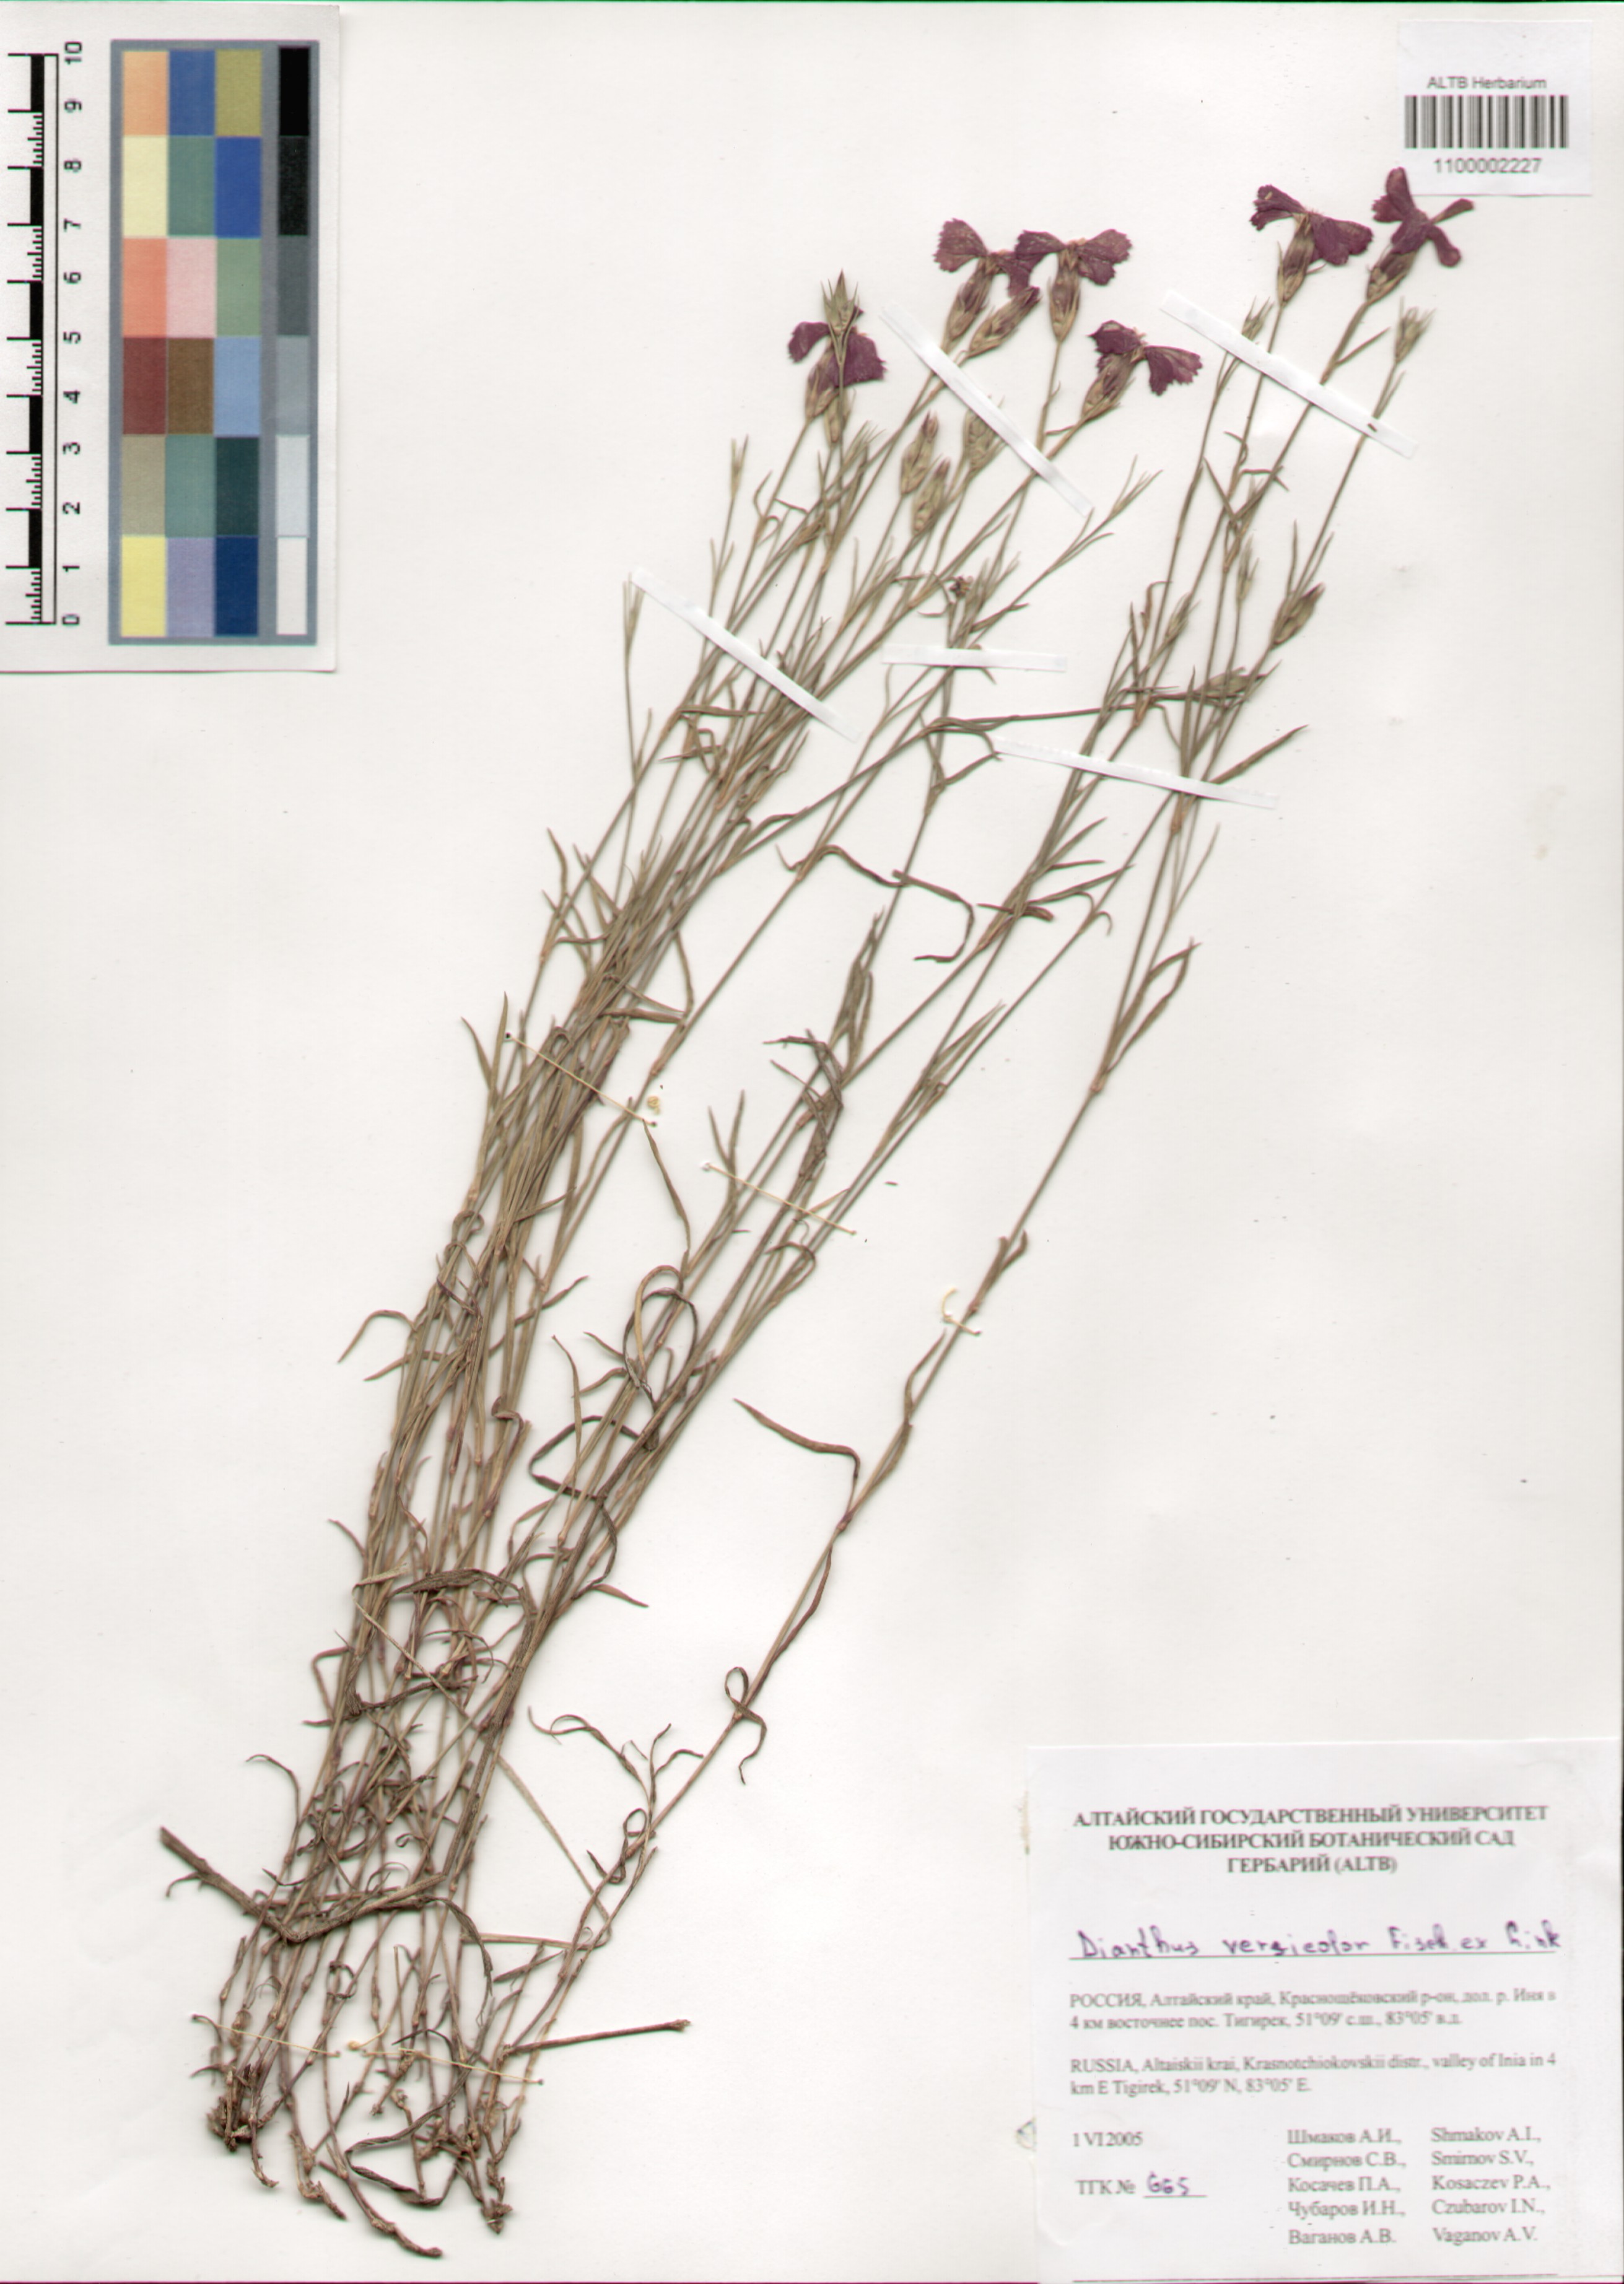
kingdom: Plantae
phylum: Tracheophyta
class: Magnoliopsida
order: Caryophyllales
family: Caryophyllaceae
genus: Dianthus
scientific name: Dianthus chinensis
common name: Rainbow pink
